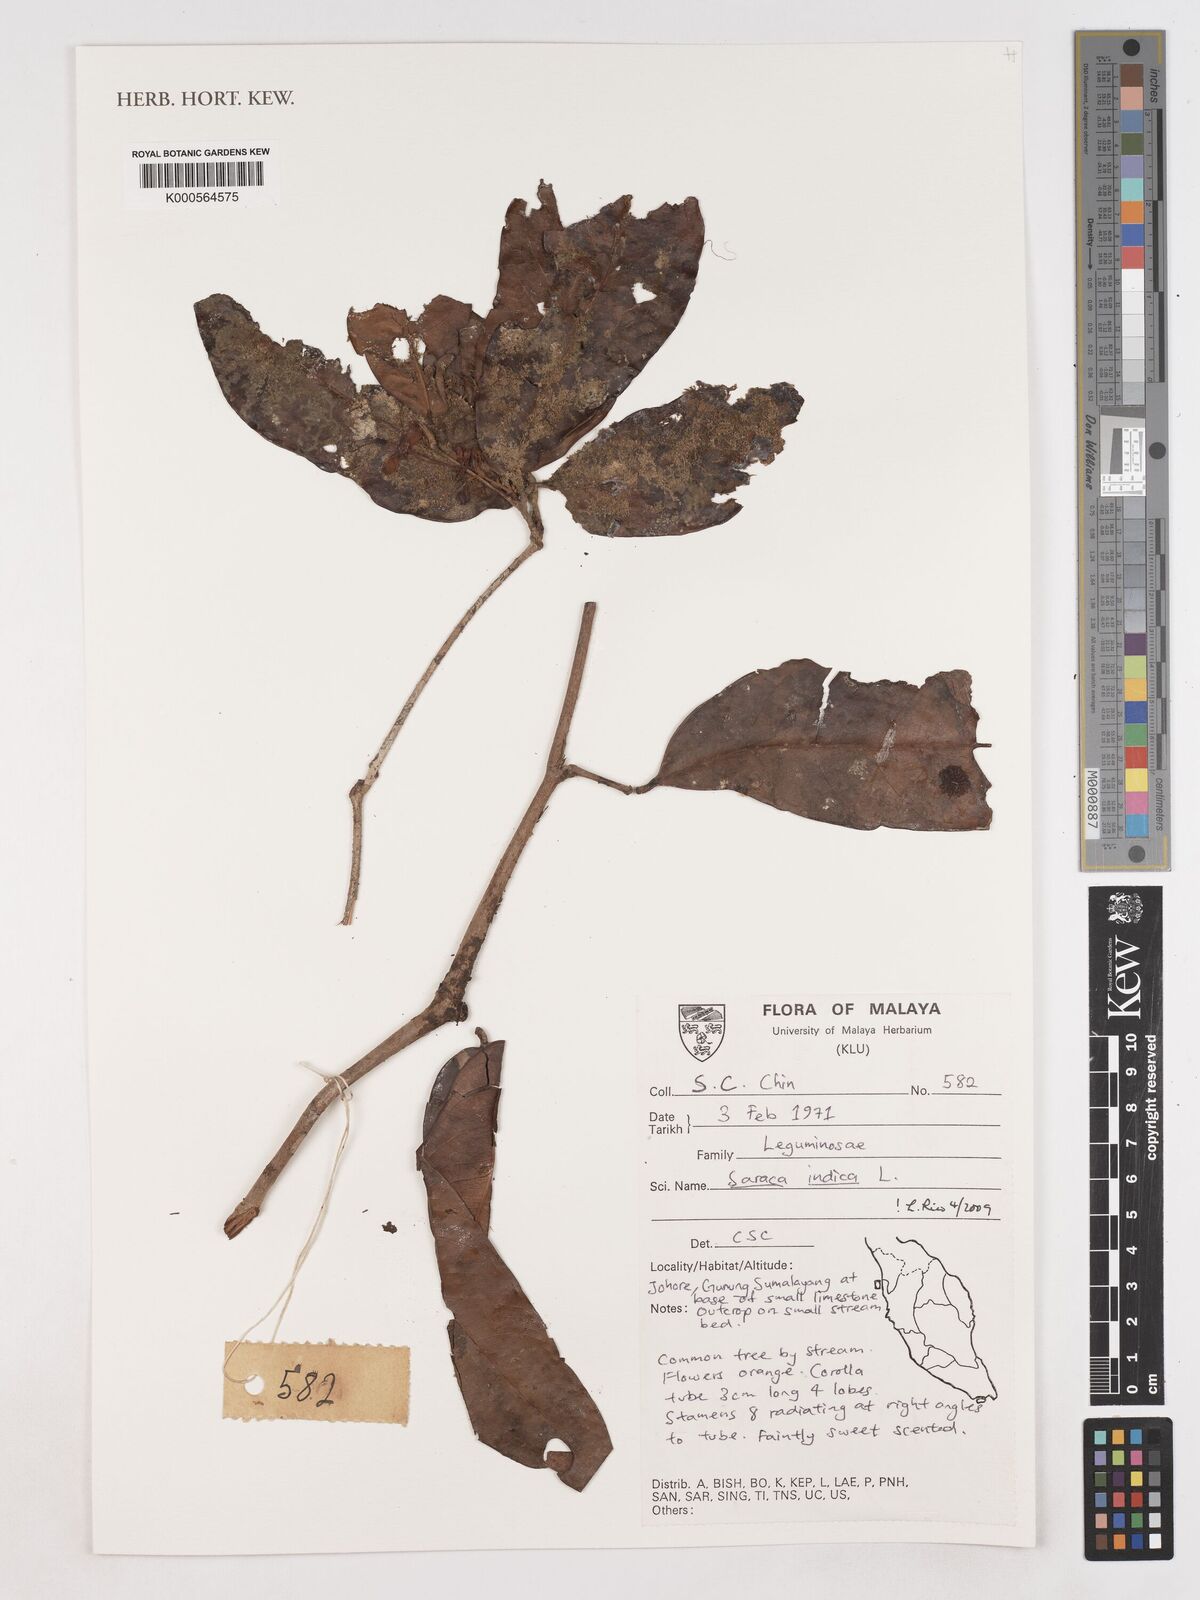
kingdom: Plantae
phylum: Tracheophyta
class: Magnoliopsida
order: Fabales
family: Fabaceae
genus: Saraca
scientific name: Saraca indica
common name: Asoka-tree
